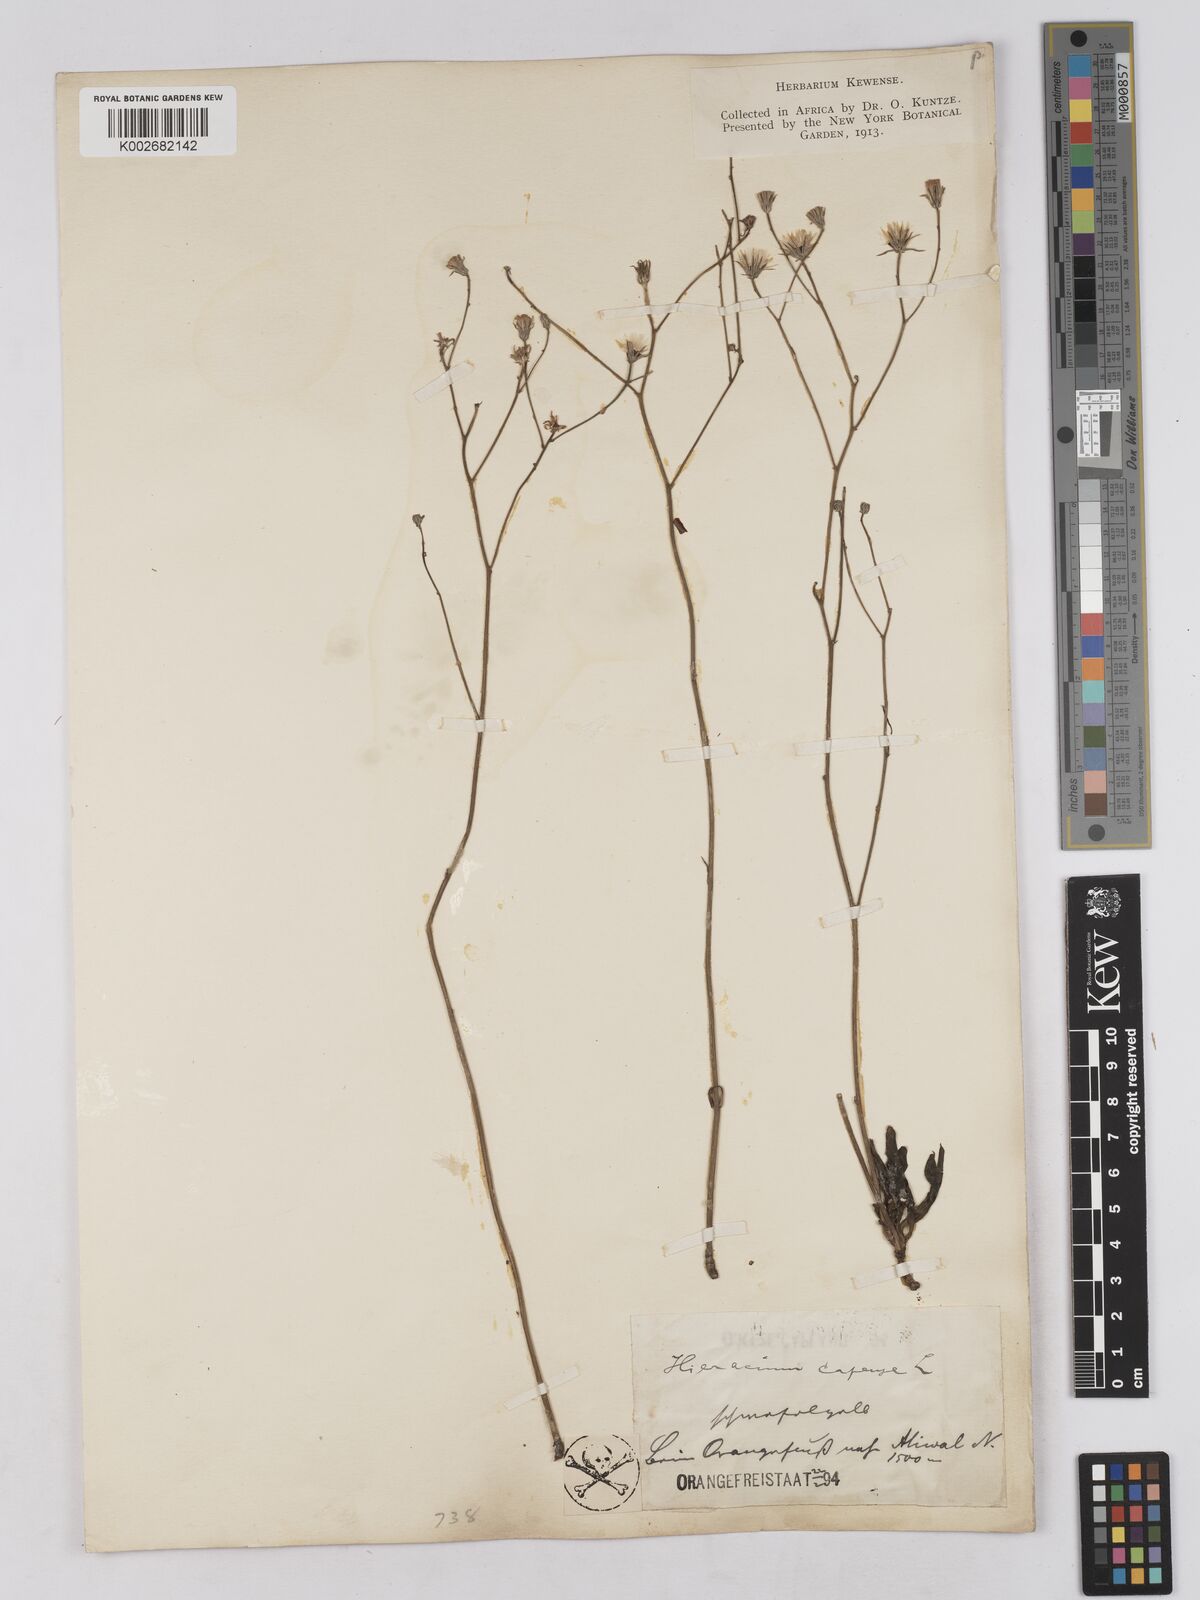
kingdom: Plantae
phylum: Tracheophyta
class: Magnoliopsida
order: Asterales
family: Asteraceae
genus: Tolpis
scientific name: Tolpis capensis
